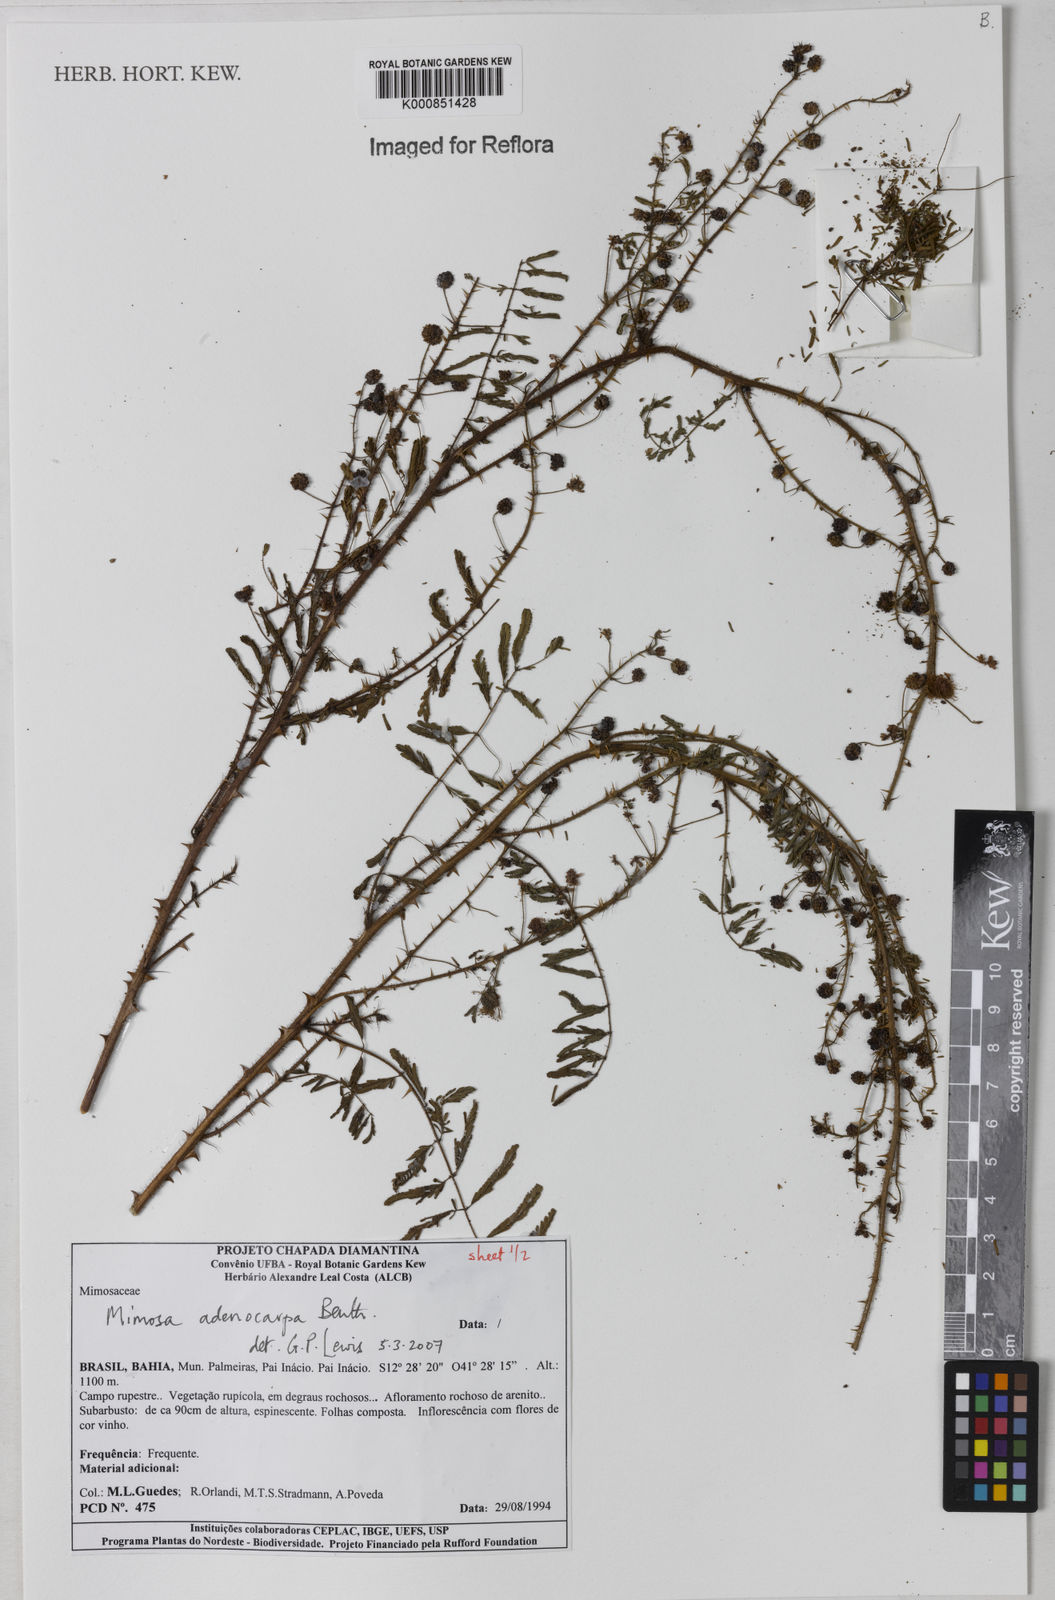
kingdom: Plantae
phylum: Tracheophyta
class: Magnoliopsida
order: Fabales
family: Fabaceae
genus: Mimosa
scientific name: Mimosa adenocarpa
